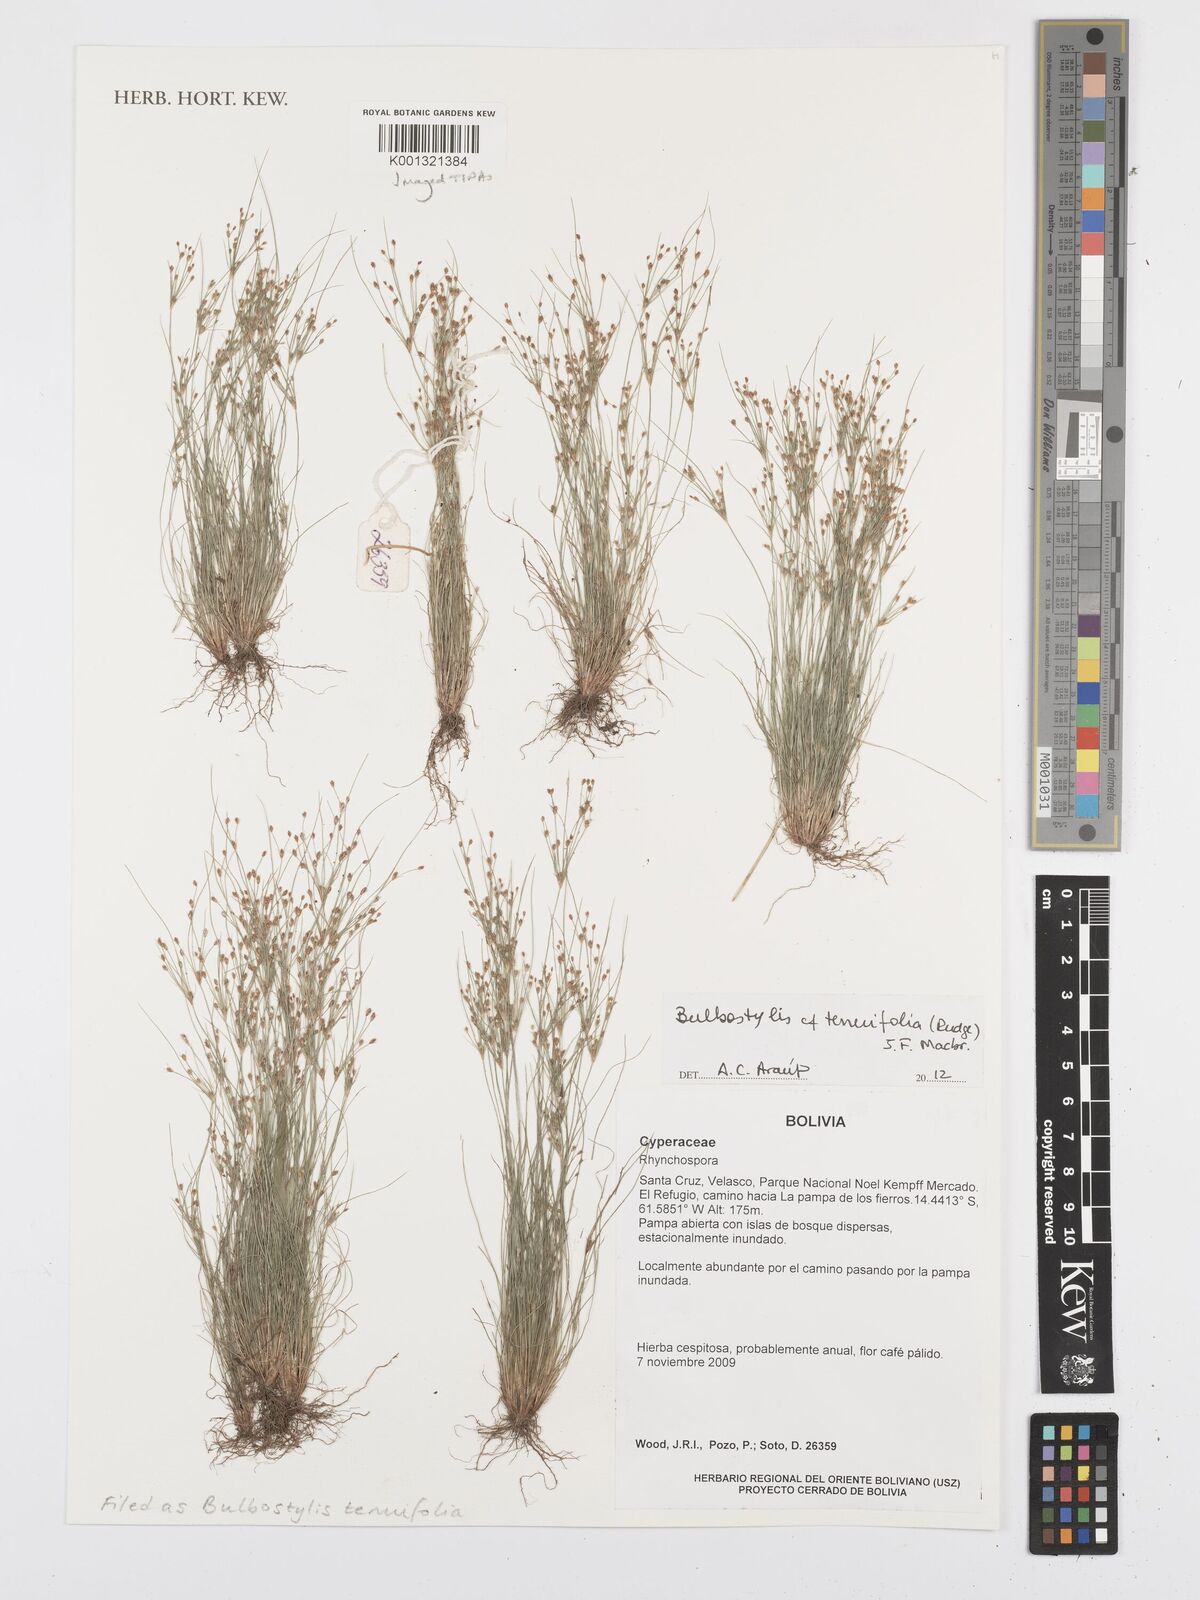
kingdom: Plantae
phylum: Tracheophyta
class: Liliopsida
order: Poales
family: Cyperaceae
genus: Bulbostylis
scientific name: Bulbostylis tenuifolia
